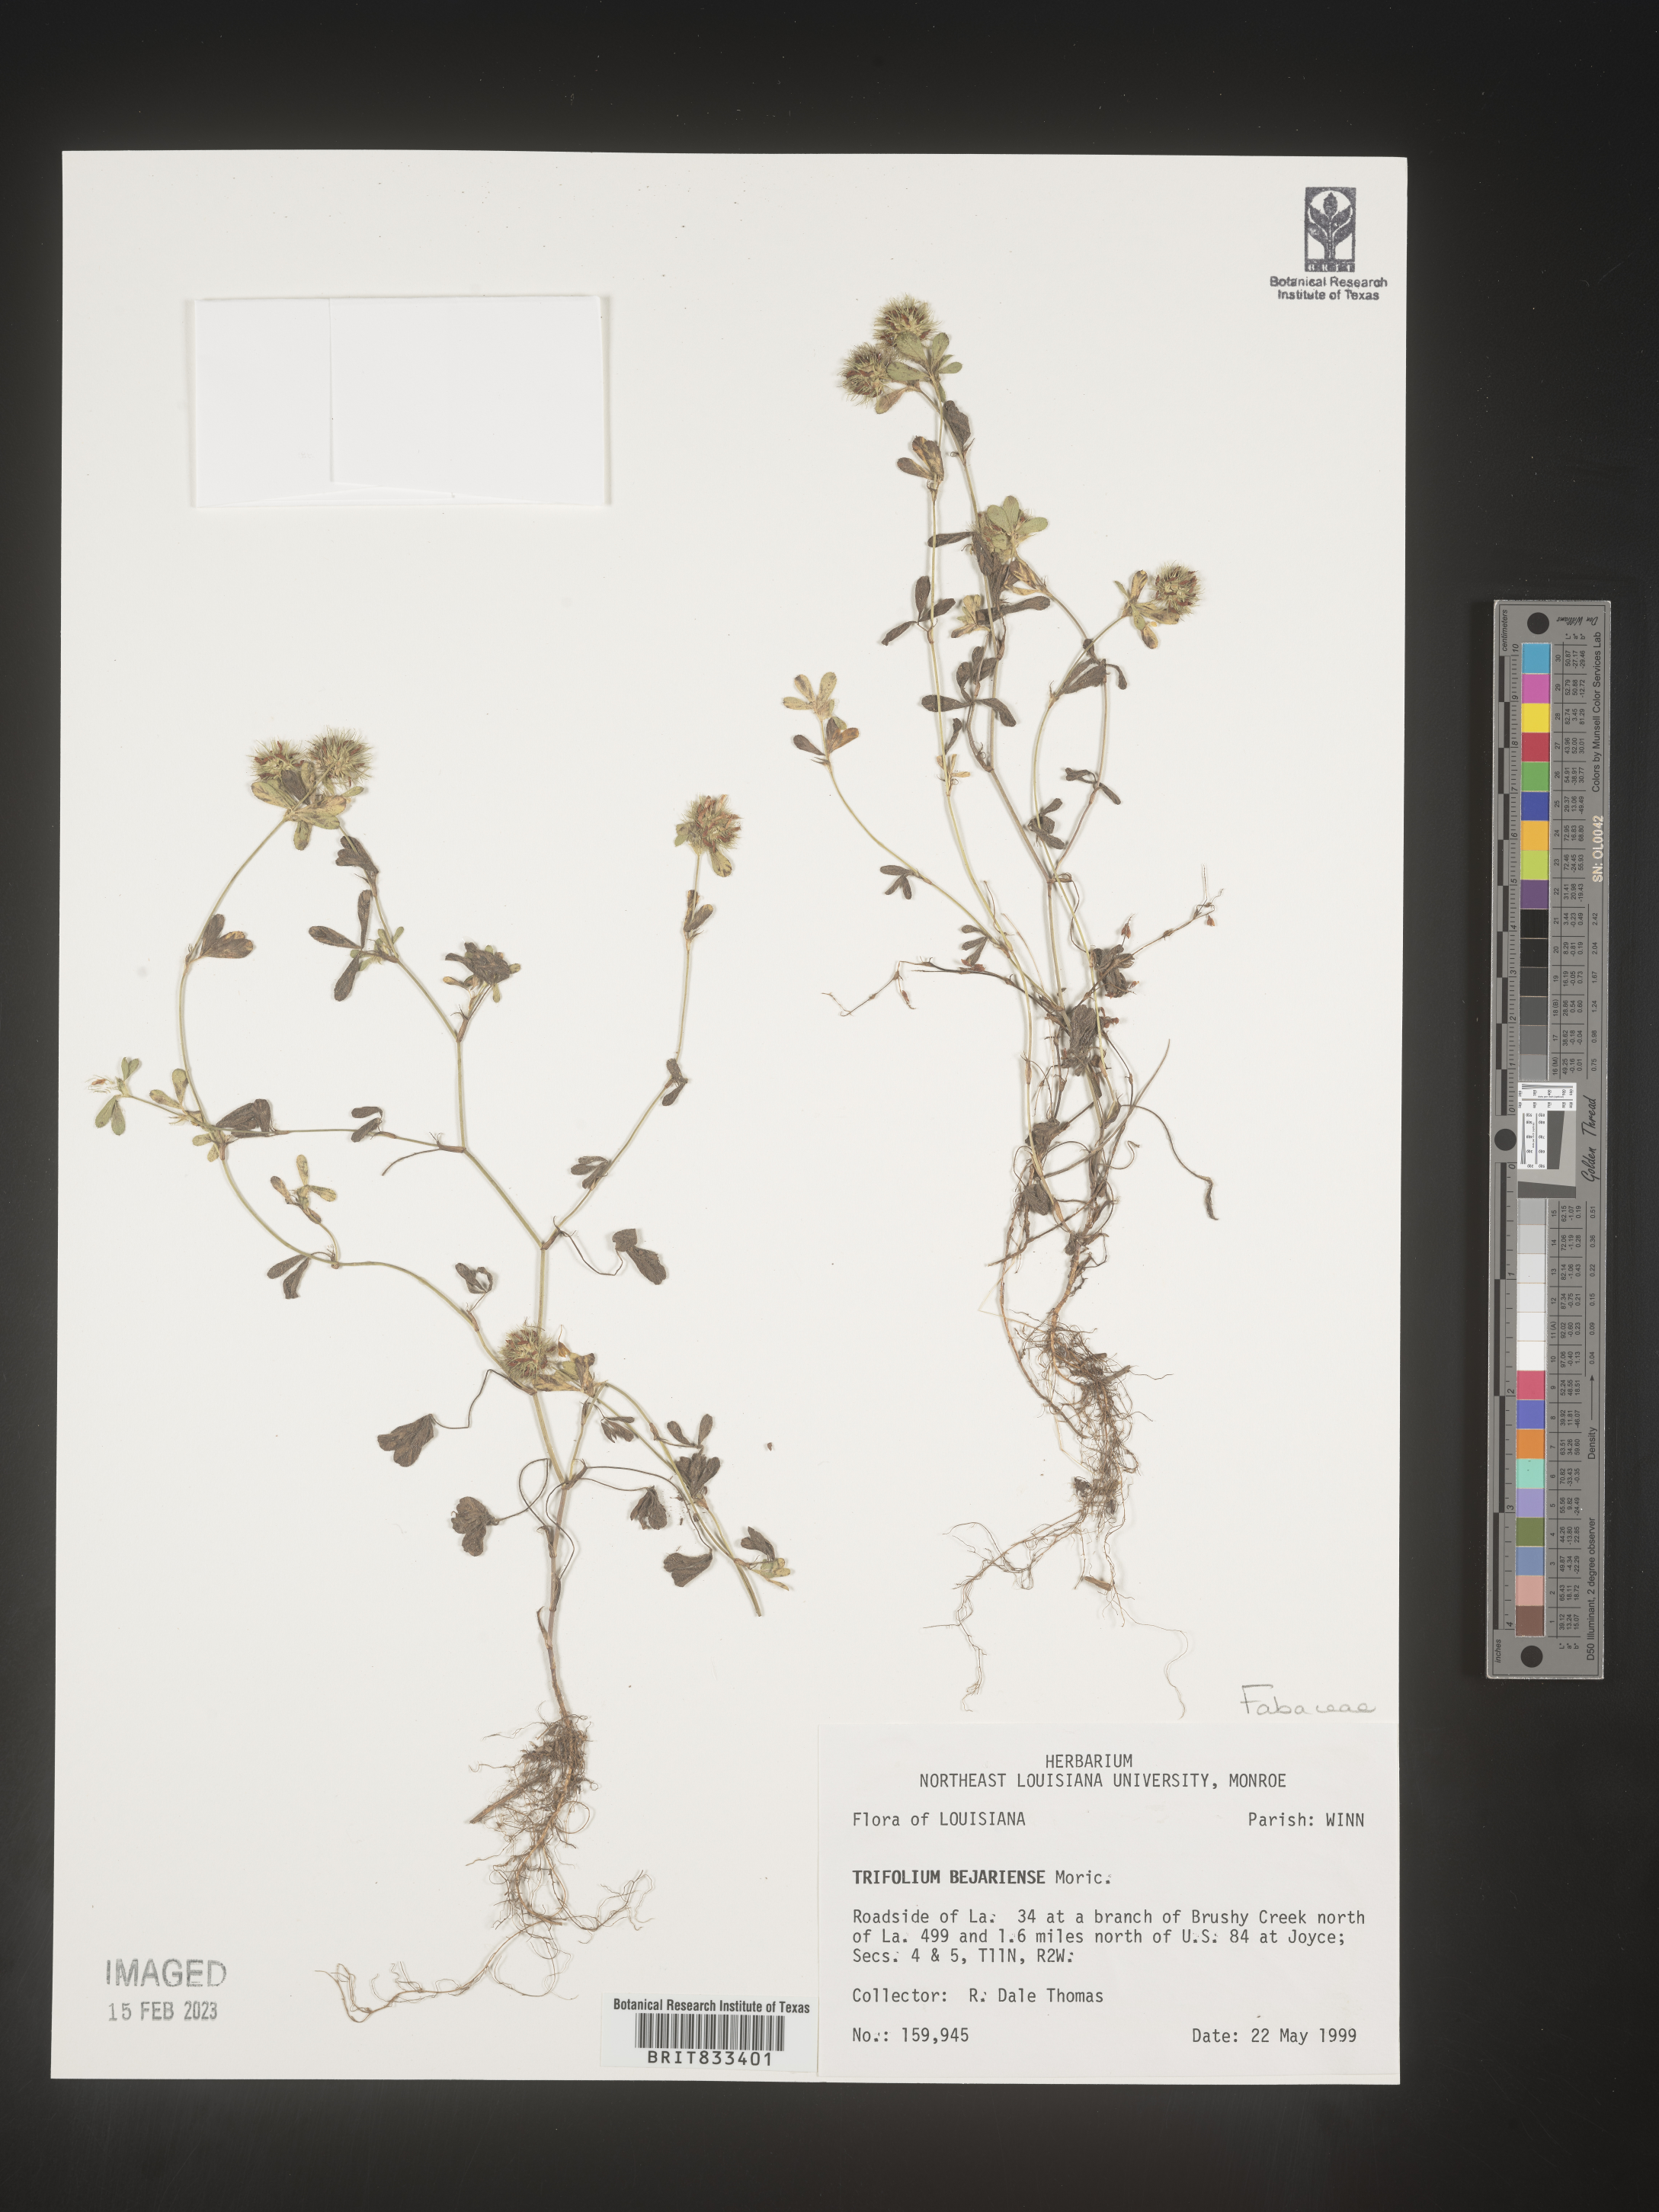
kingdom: Plantae
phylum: Tracheophyta
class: Magnoliopsida
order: Fabales
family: Fabaceae
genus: Trifolium
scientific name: Trifolium
